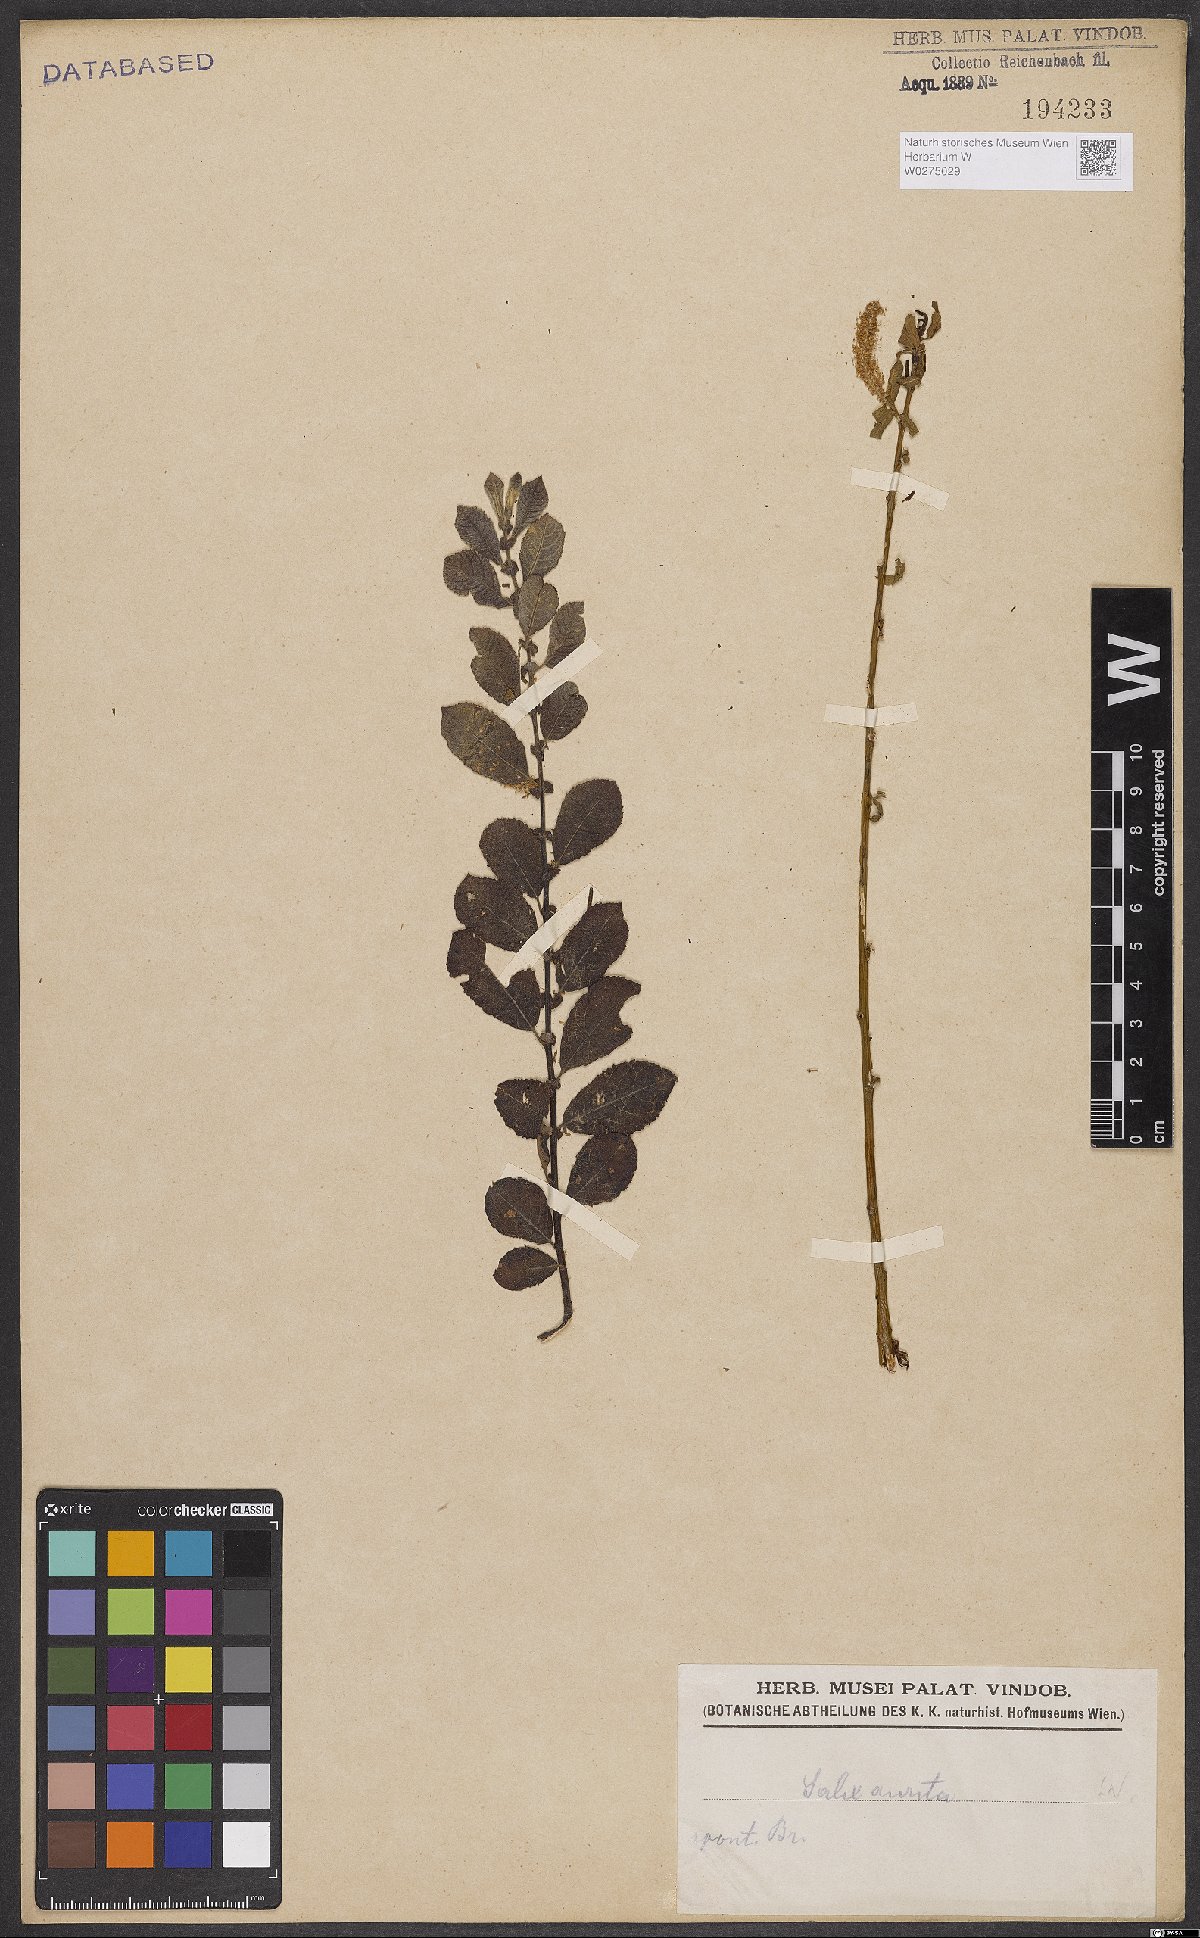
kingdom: Plantae
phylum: Tracheophyta
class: Magnoliopsida
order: Malpighiales
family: Salicaceae
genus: Salix
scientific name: Salix aurita
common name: Eared willow
